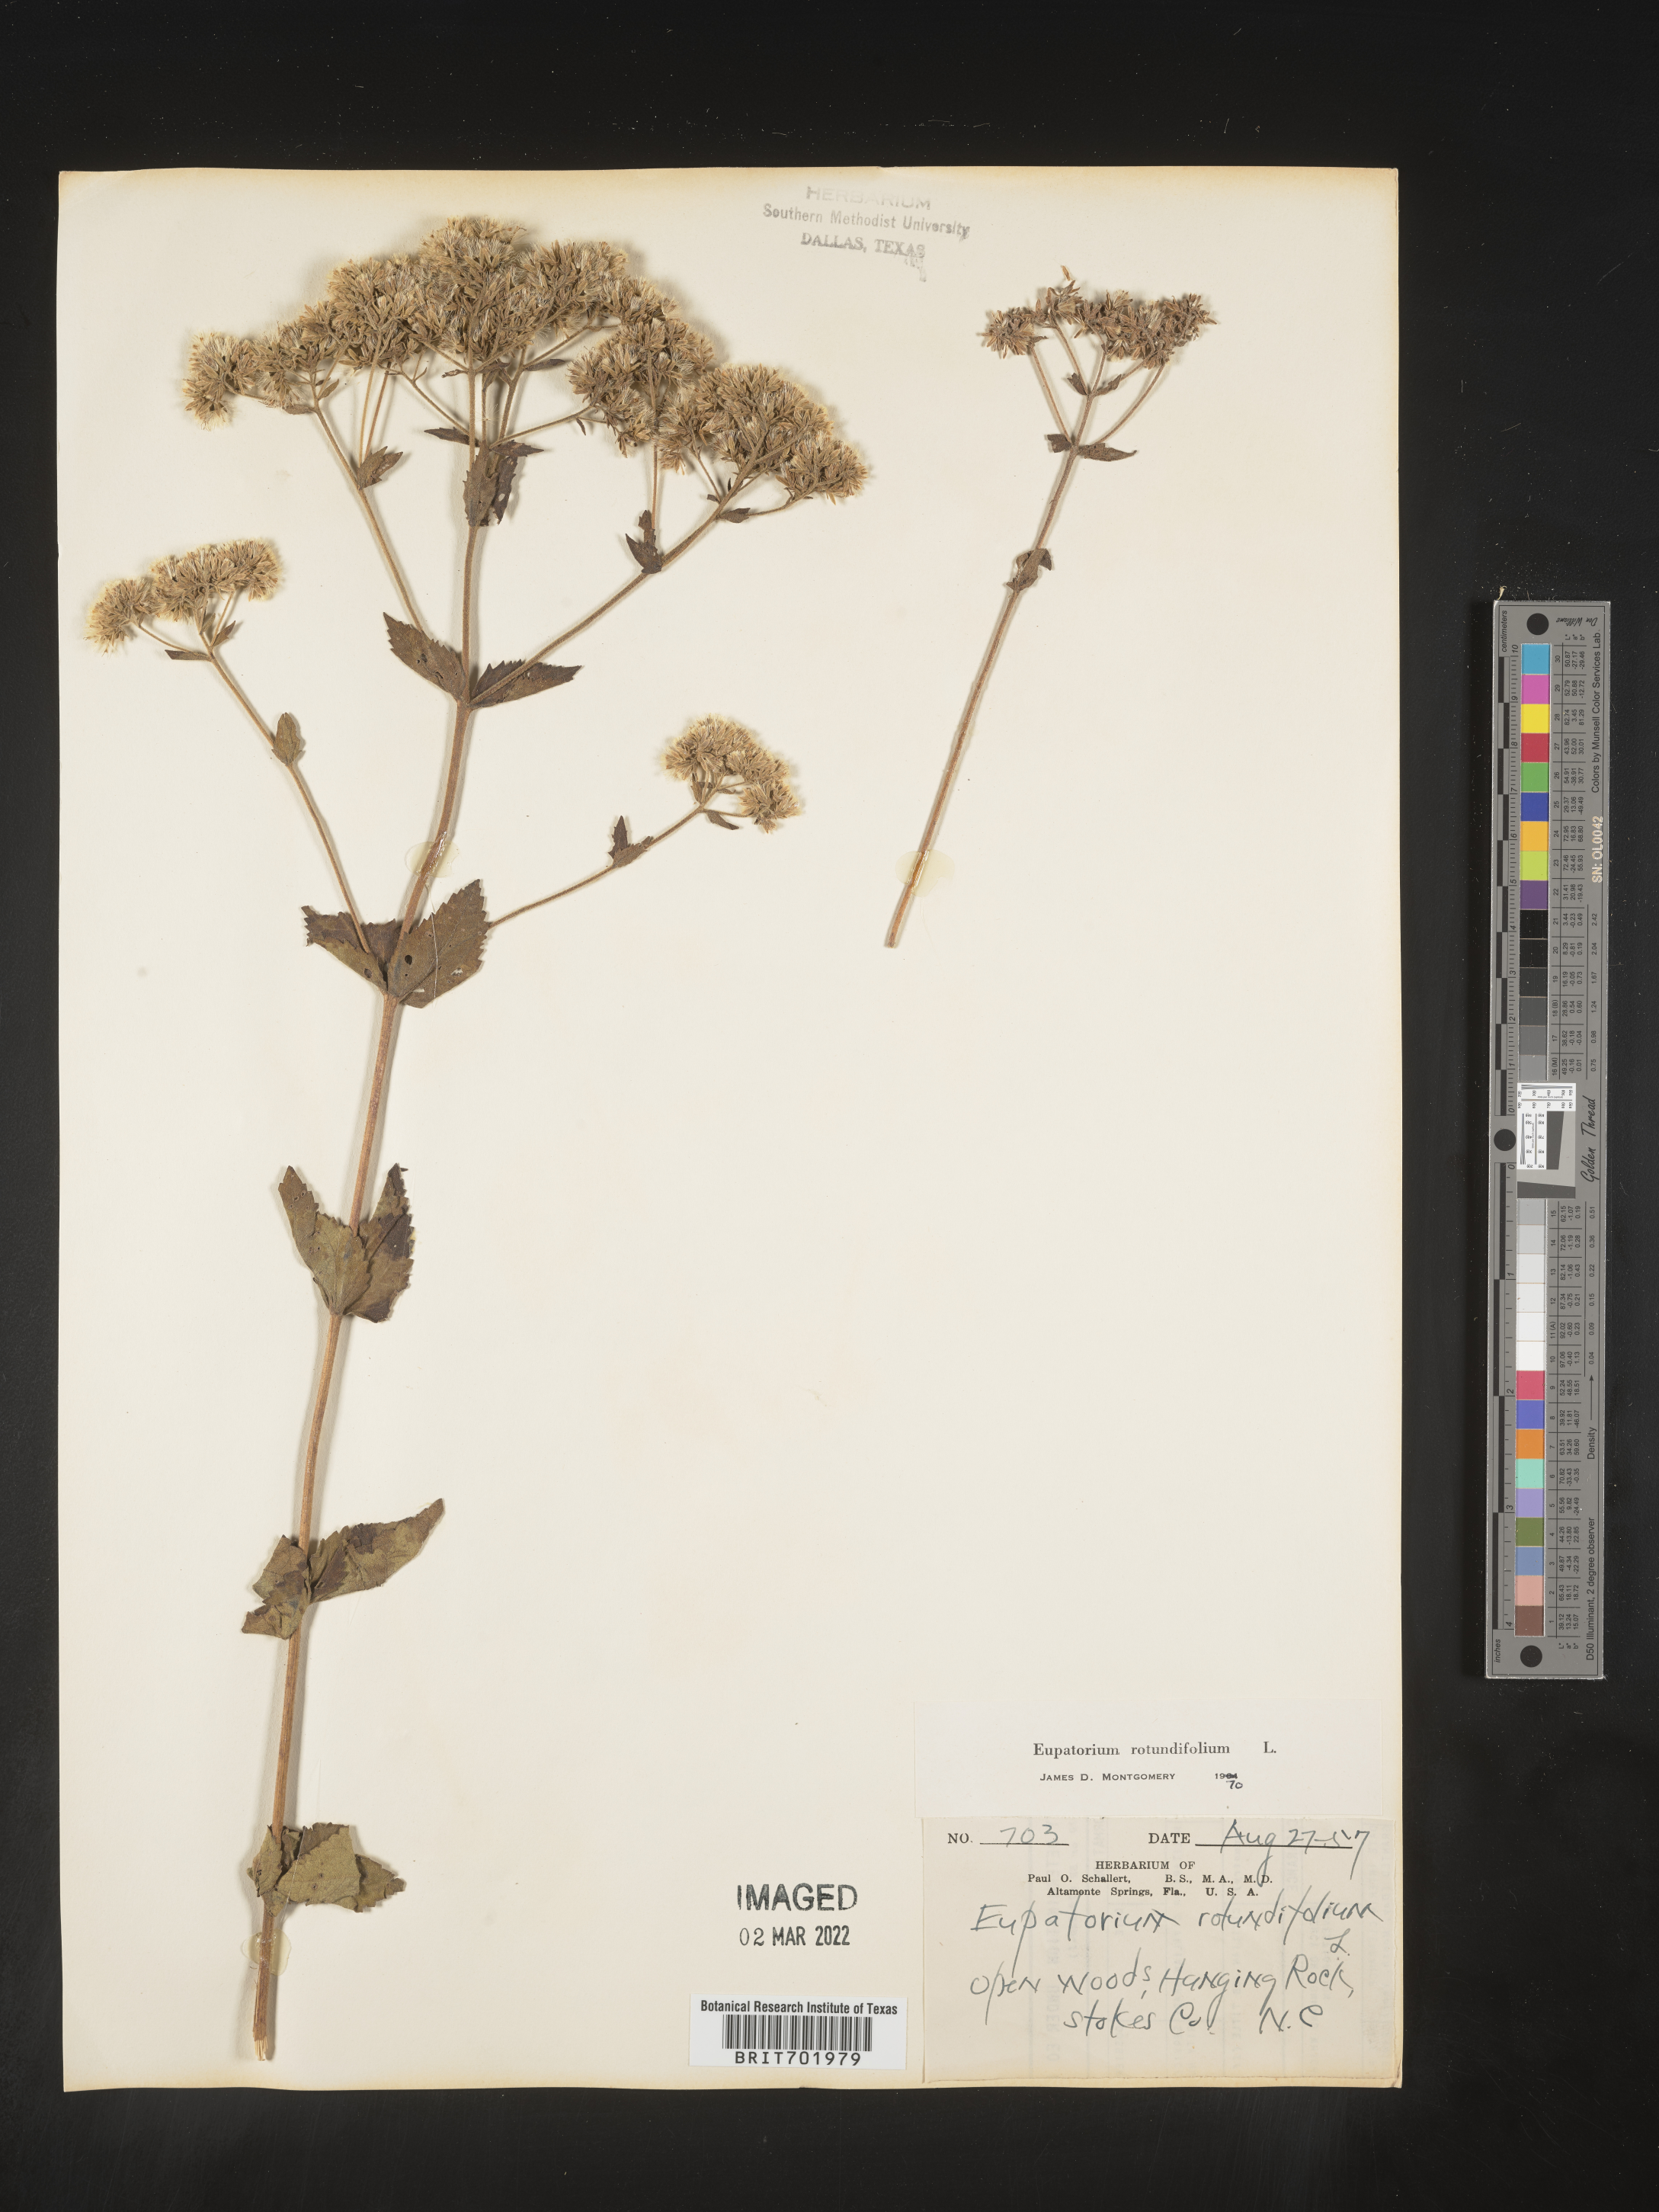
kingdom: Plantae
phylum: Tracheophyta
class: Magnoliopsida
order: Asterales
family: Asteraceae
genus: Eupatorium
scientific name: Eupatorium rotundifolium
